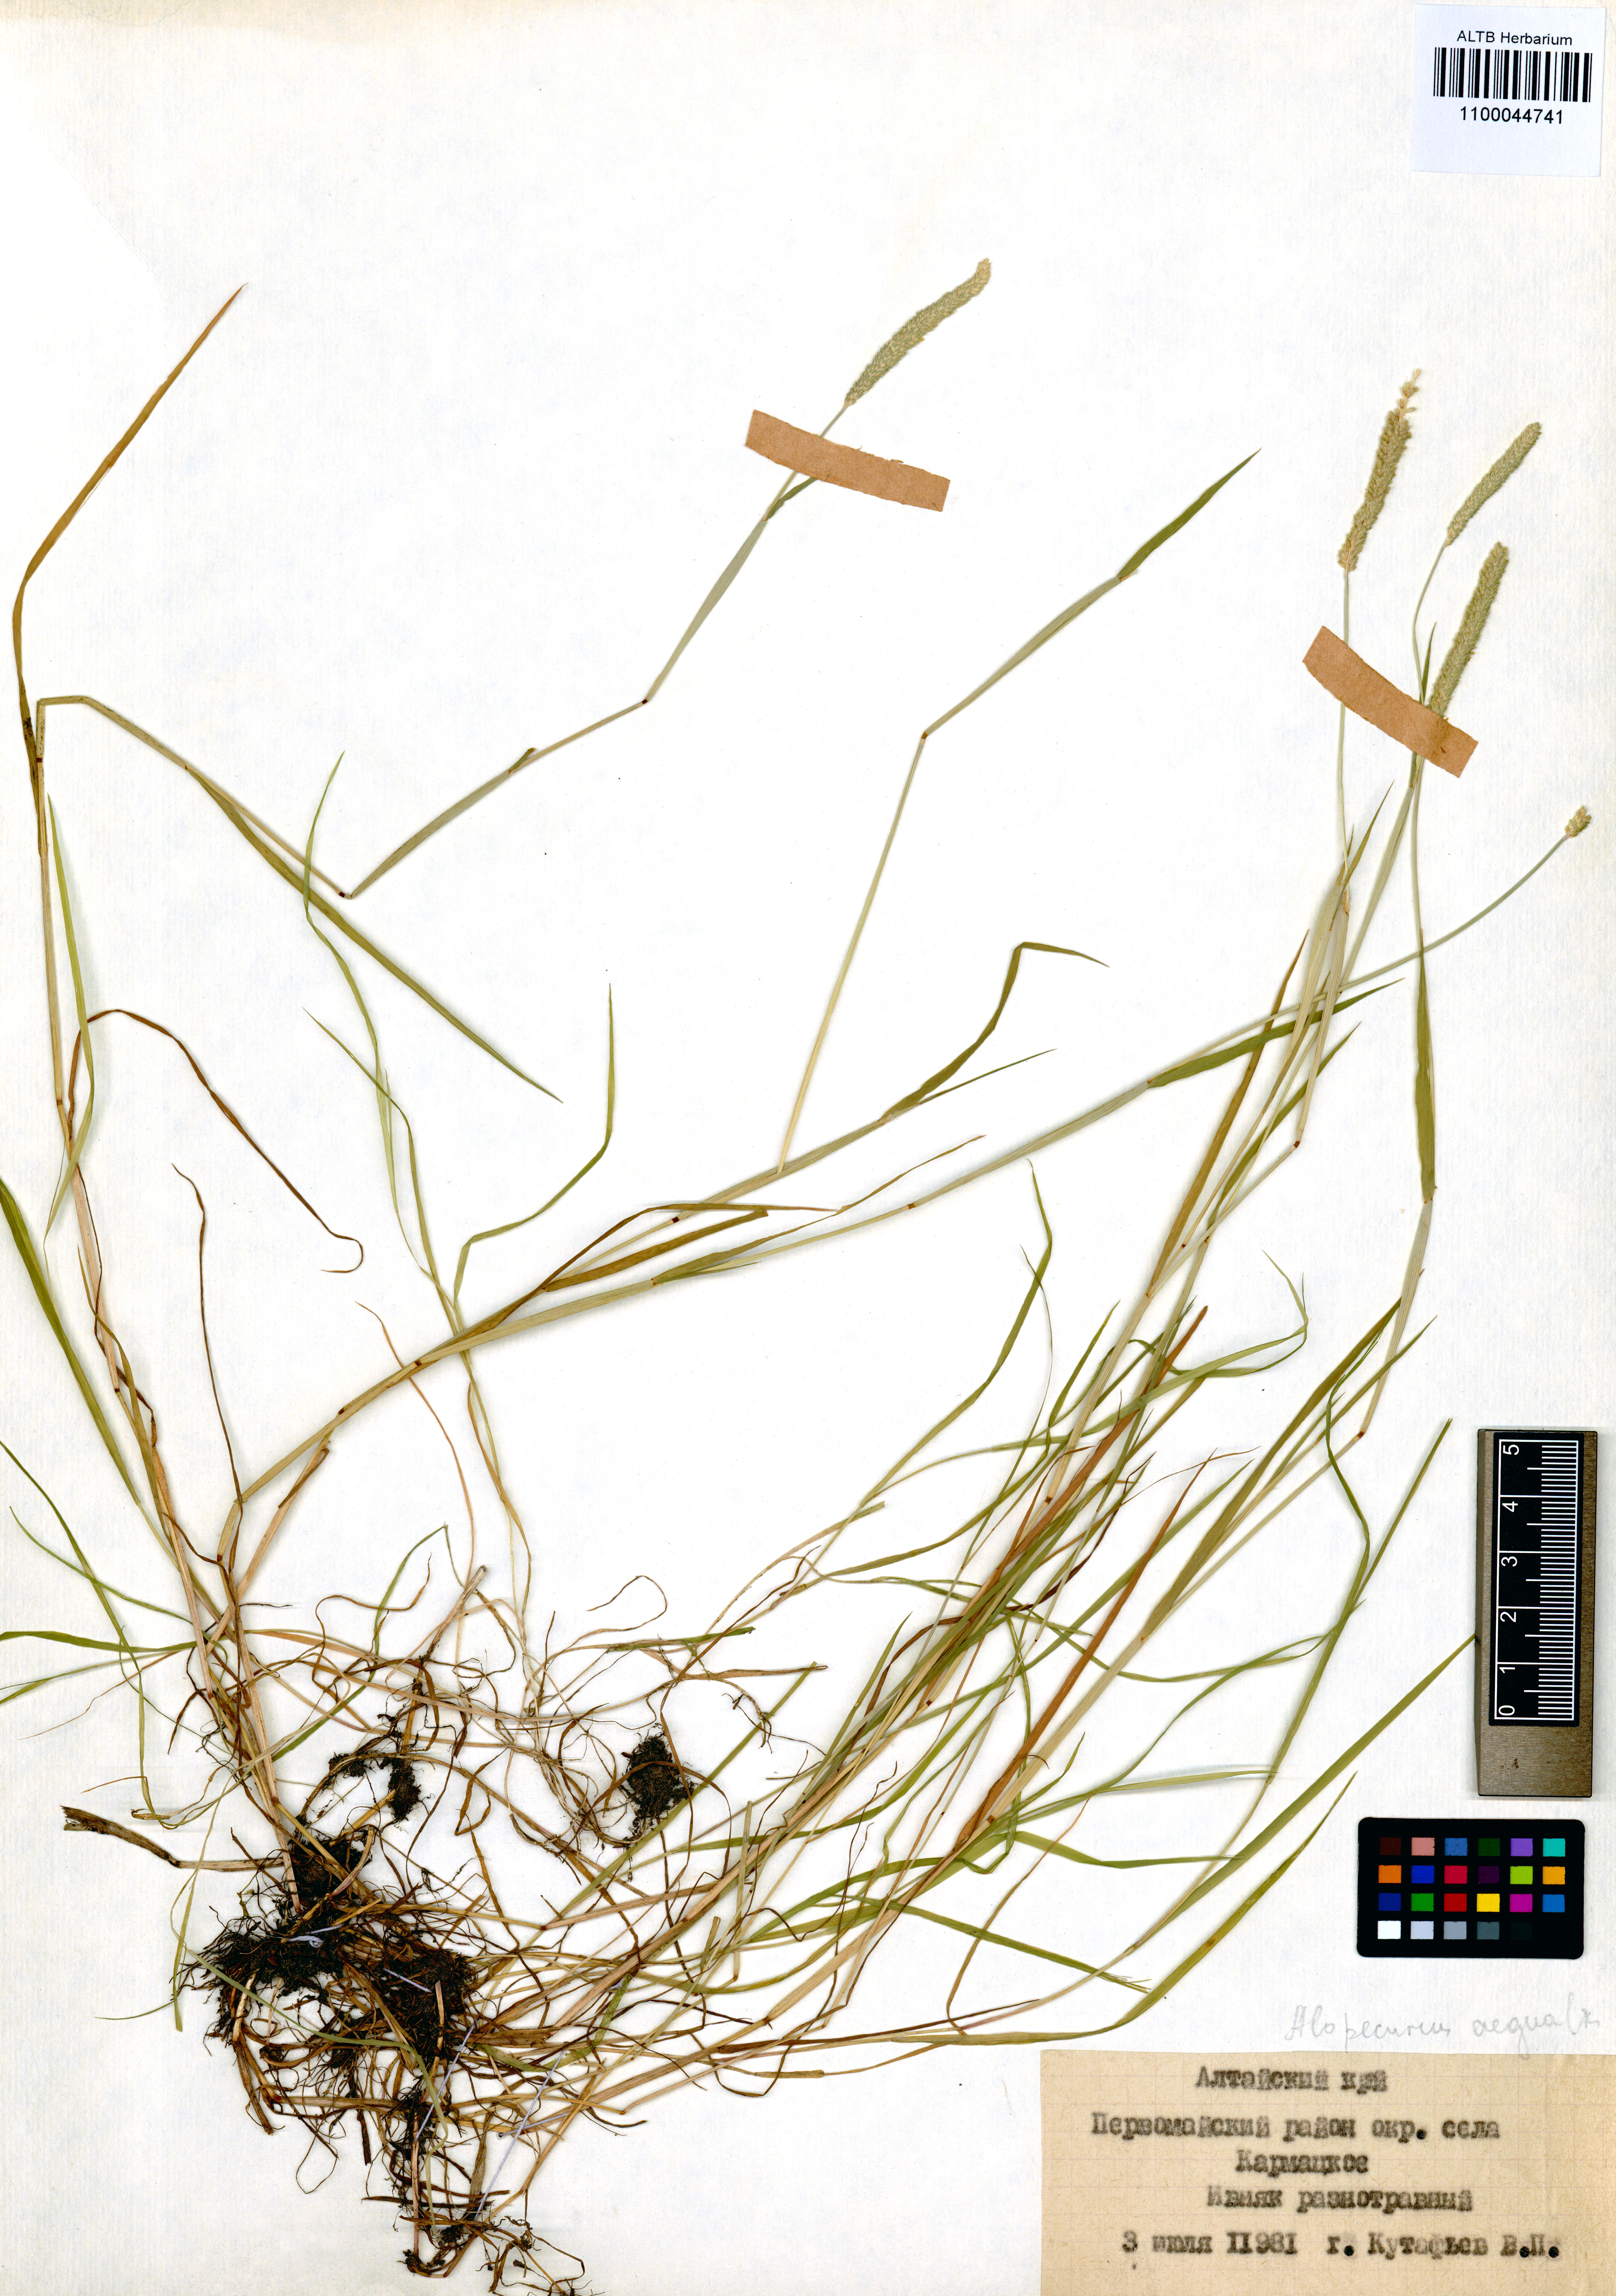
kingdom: Plantae
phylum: Tracheophyta
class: Liliopsida
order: Poales
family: Poaceae
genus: Alopecurus
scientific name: Alopecurus aequalis
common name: Orange foxtail
